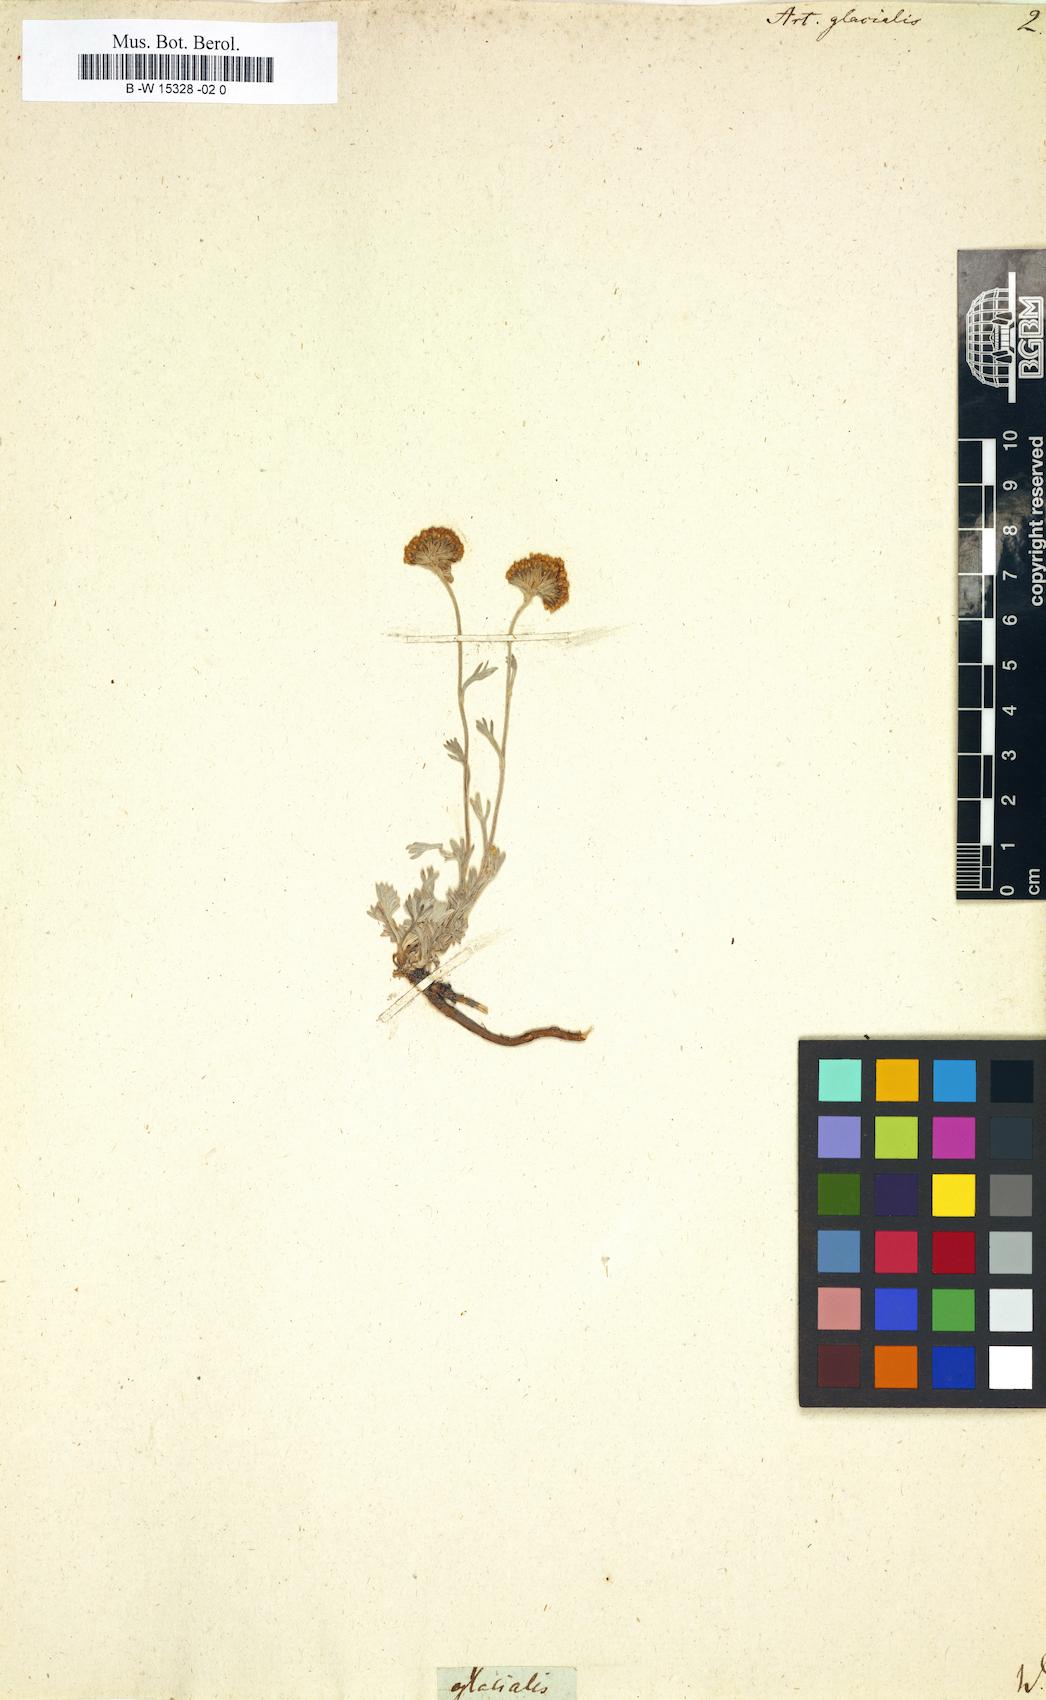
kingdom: Plantae
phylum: Tracheophyta
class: Magnoliopsida
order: Asterales
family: Asteraceae
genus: Artemisia
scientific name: Artemisia glacialis
